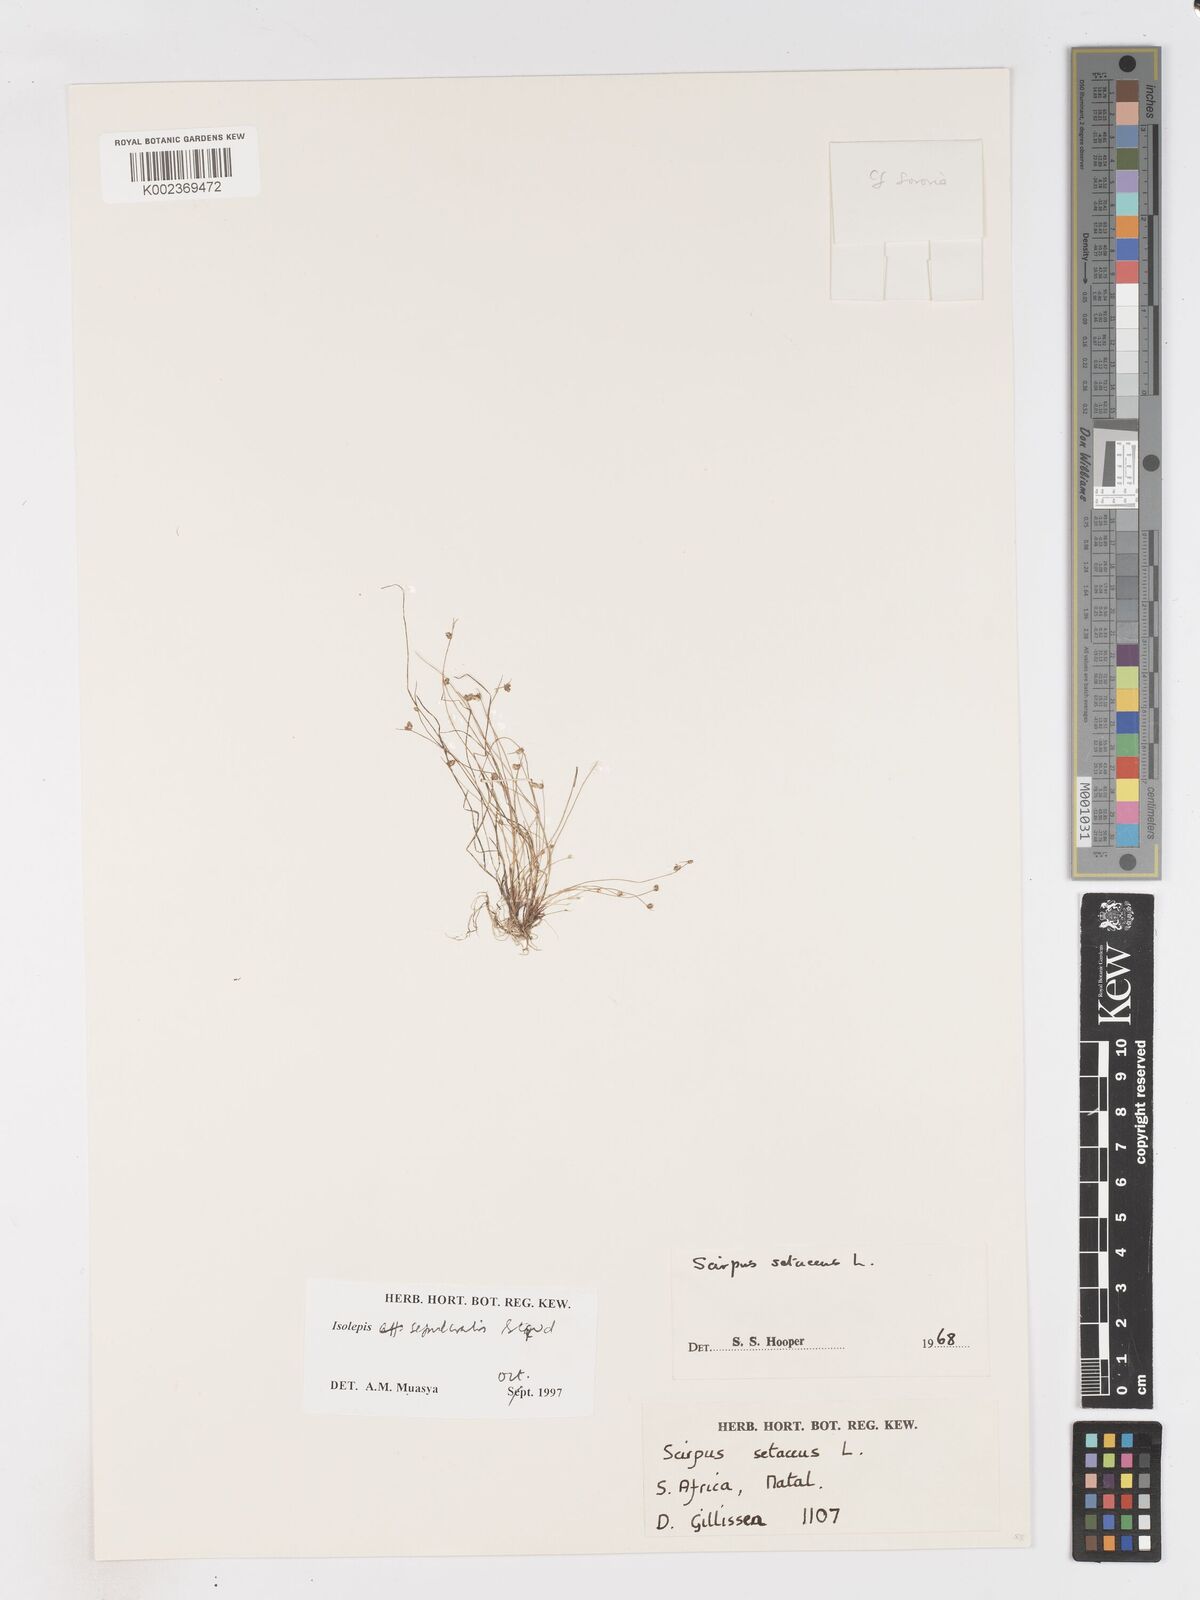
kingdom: Plantae
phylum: Tracheophyta
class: Liliopsida
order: Poales
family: Cyperaceae
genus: Isolepis
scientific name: Isolepis tenuissima
